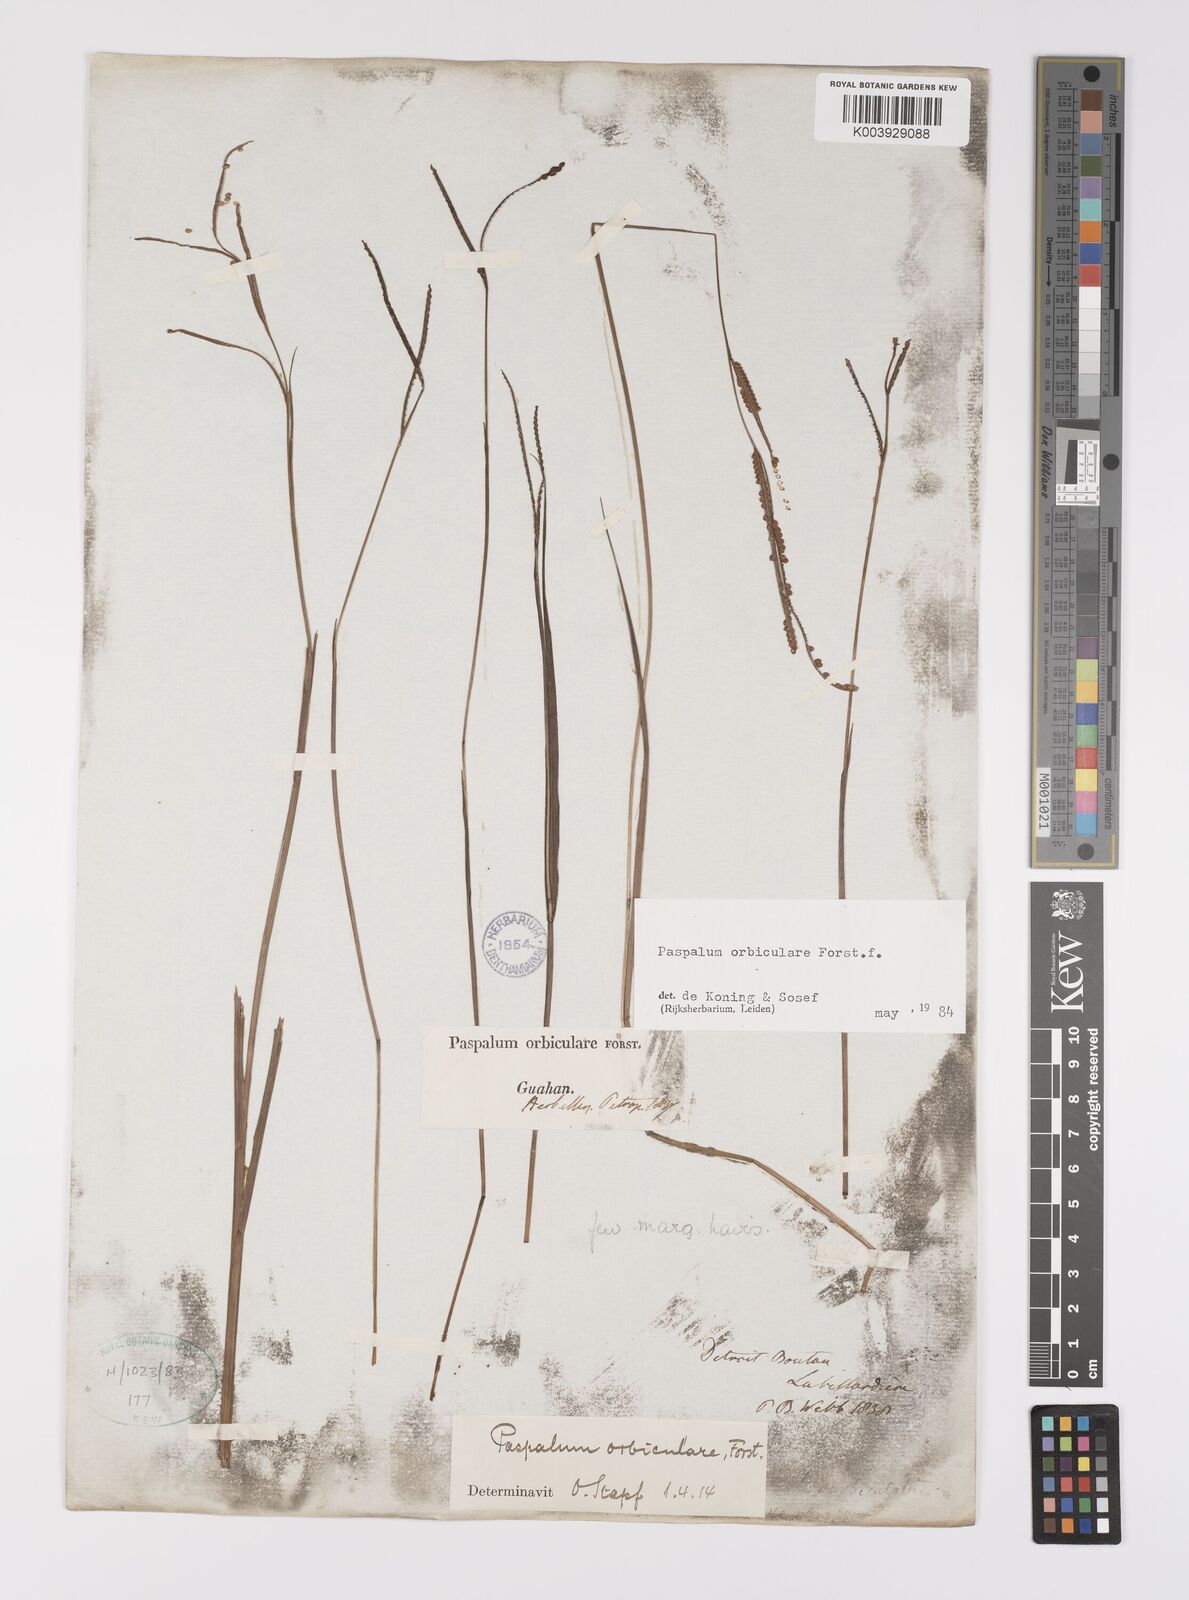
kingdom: Plantae
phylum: Tracheophyta
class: Liliopsida
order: Poales
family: Poaceae
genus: Paspalum
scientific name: Paspalum scrobiculatum
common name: Kodo millet
